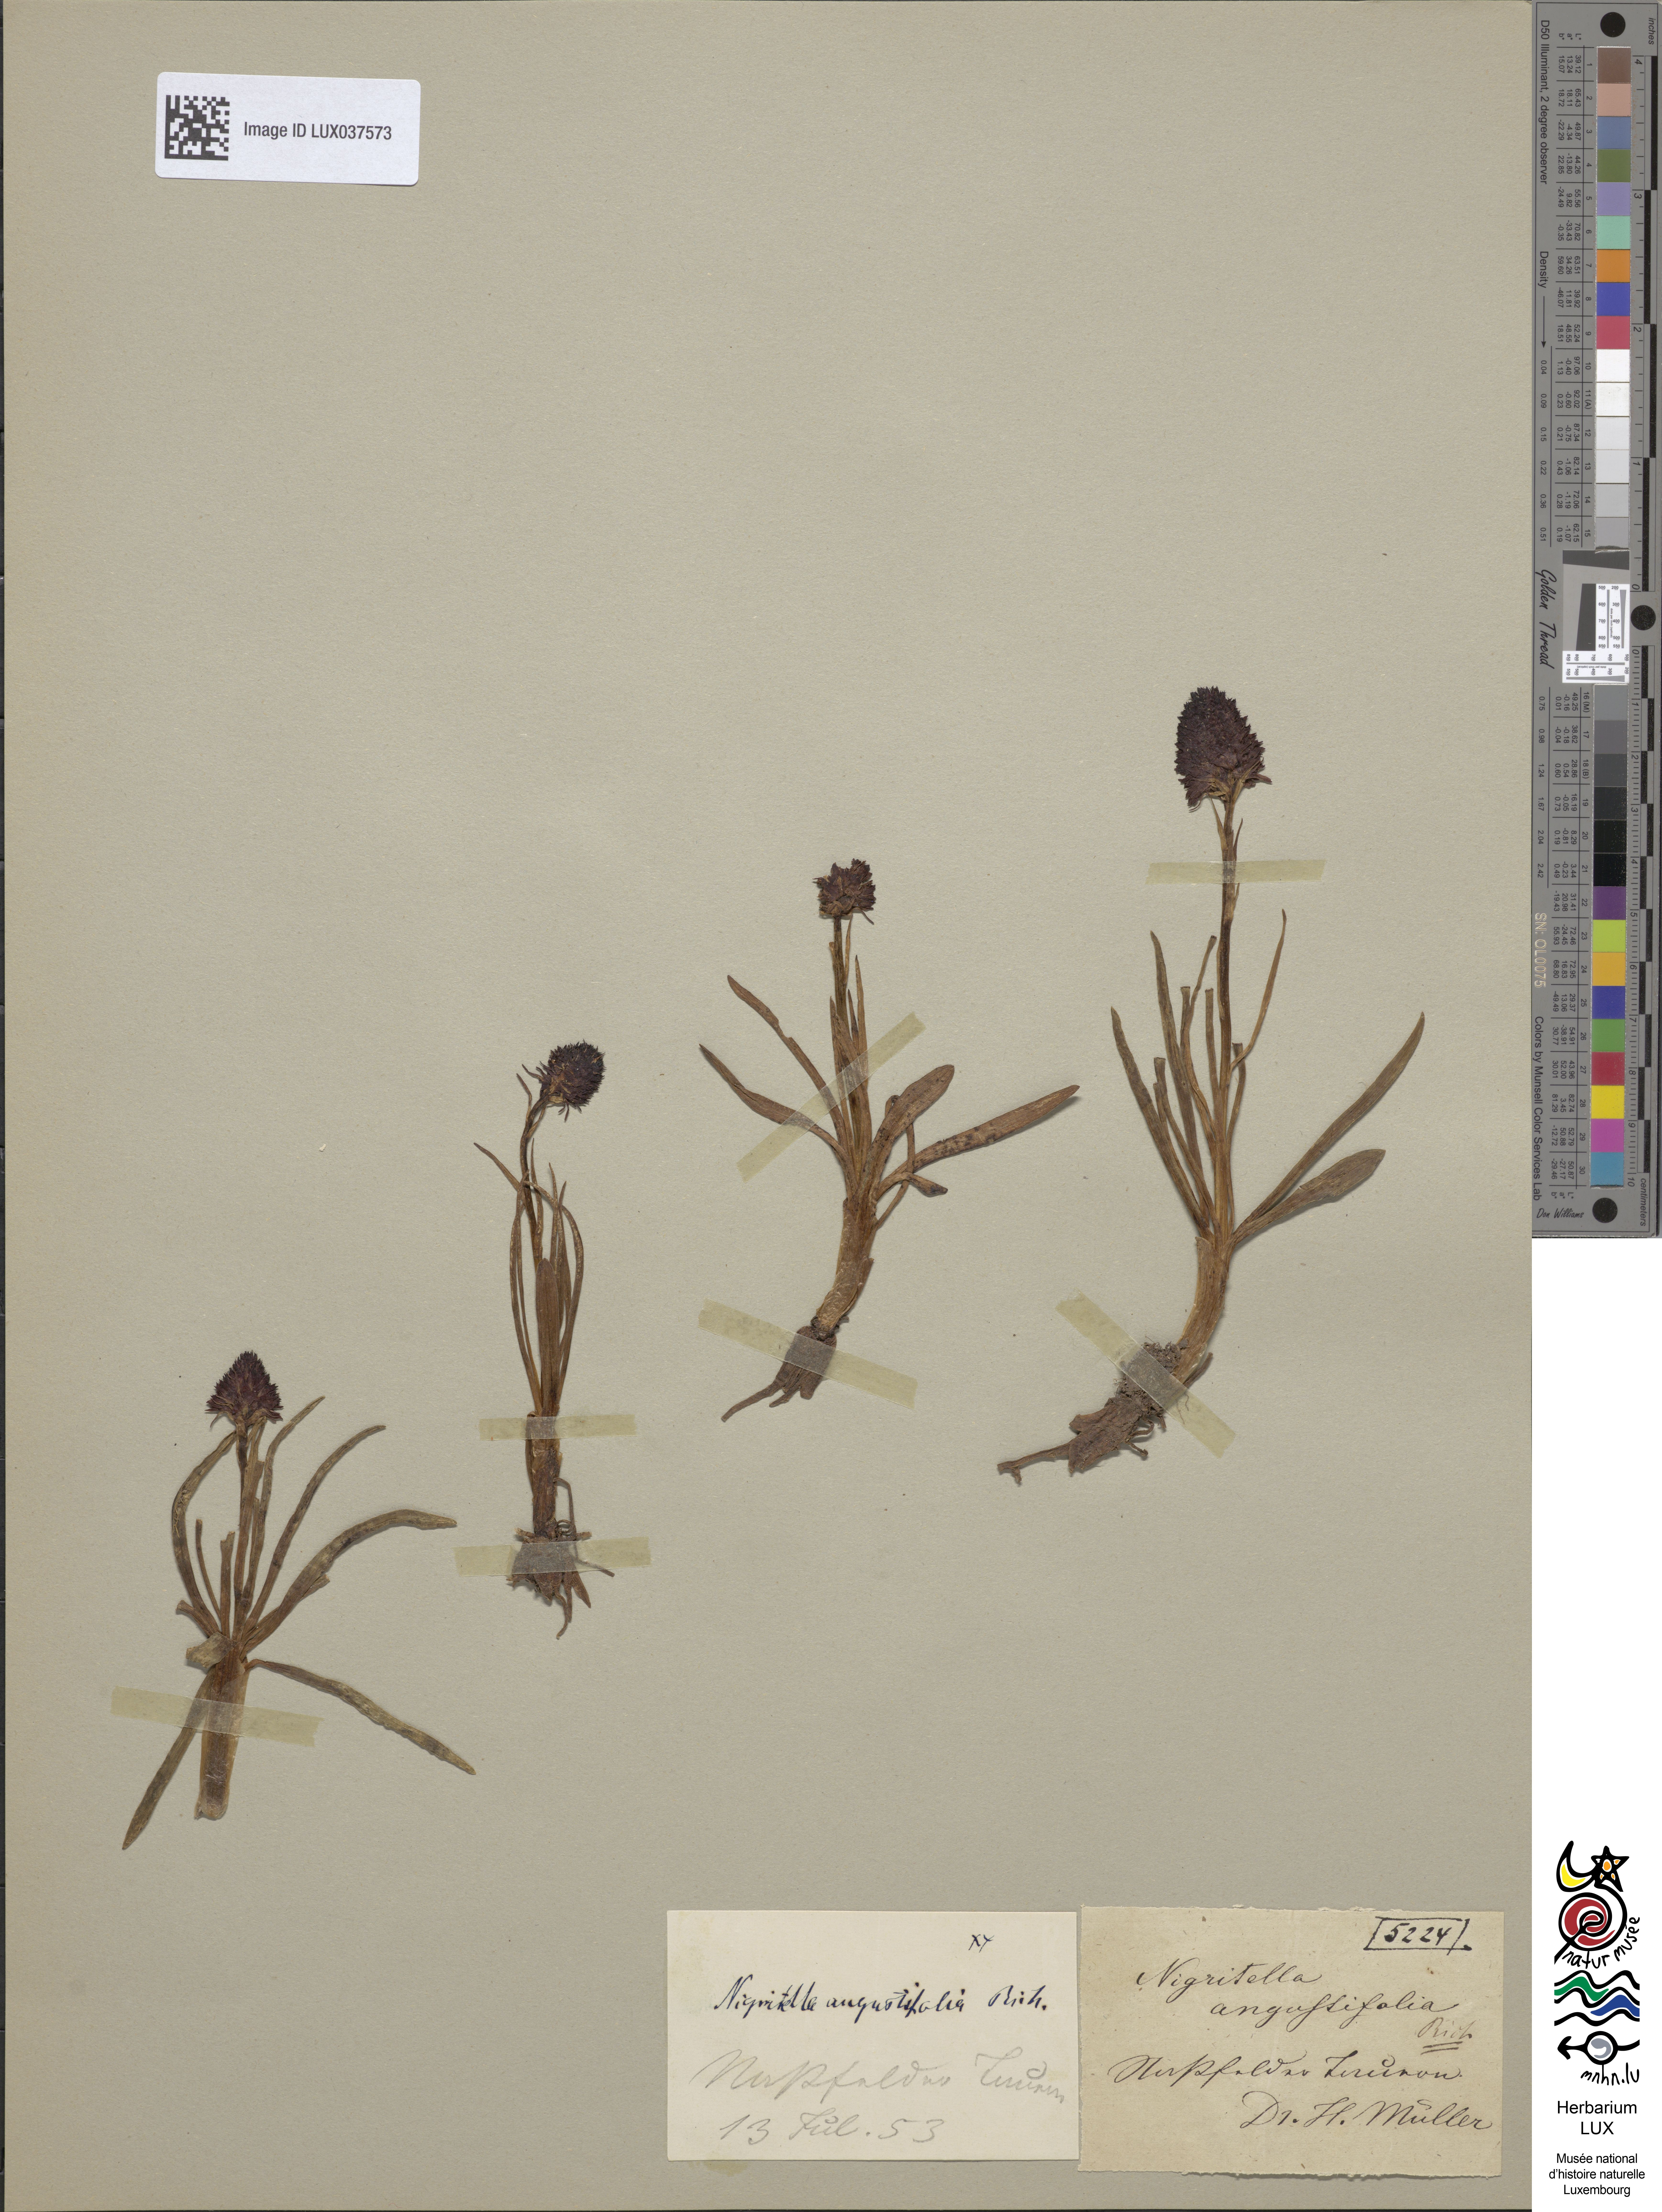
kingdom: Plantae
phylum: Tracheophyta
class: Liliopsida
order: Asparagales
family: Orchidaceae
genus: Gymnadenia
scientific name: Gymnadenia nigra
